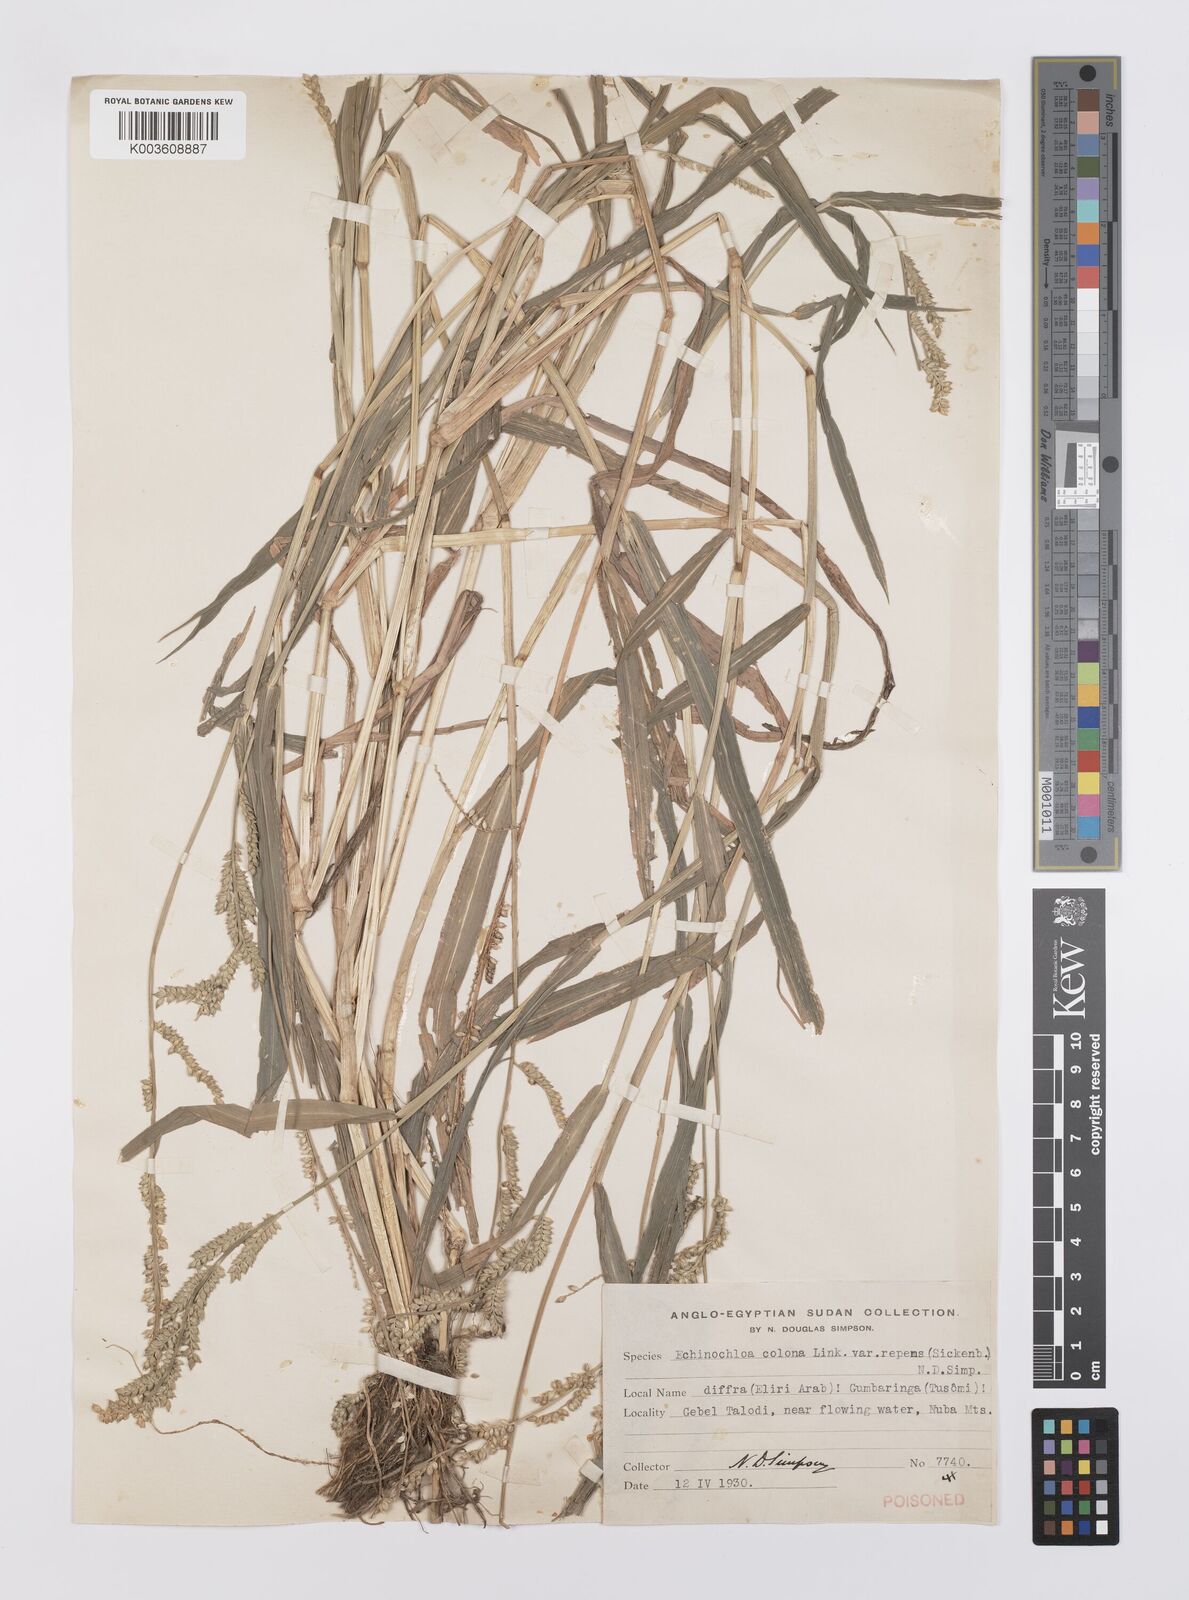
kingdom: Plantae
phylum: Tracheophyta
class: Liliopsida
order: Poales
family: Poaceae
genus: Echinochloa
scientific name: Echinochloa colonum
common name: Jungle rice
